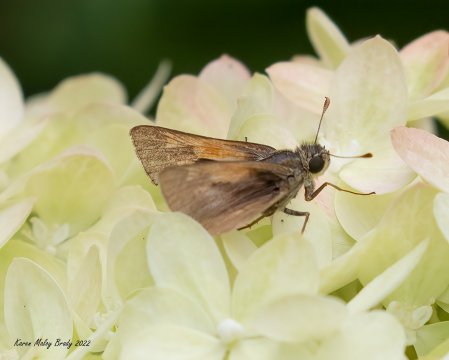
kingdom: Animalia
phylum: Arthropoda
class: Insecta
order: Lepidoptera
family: Hesperiidae
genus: Polites
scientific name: Polites themistocles
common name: Tawny-edged Skipper
